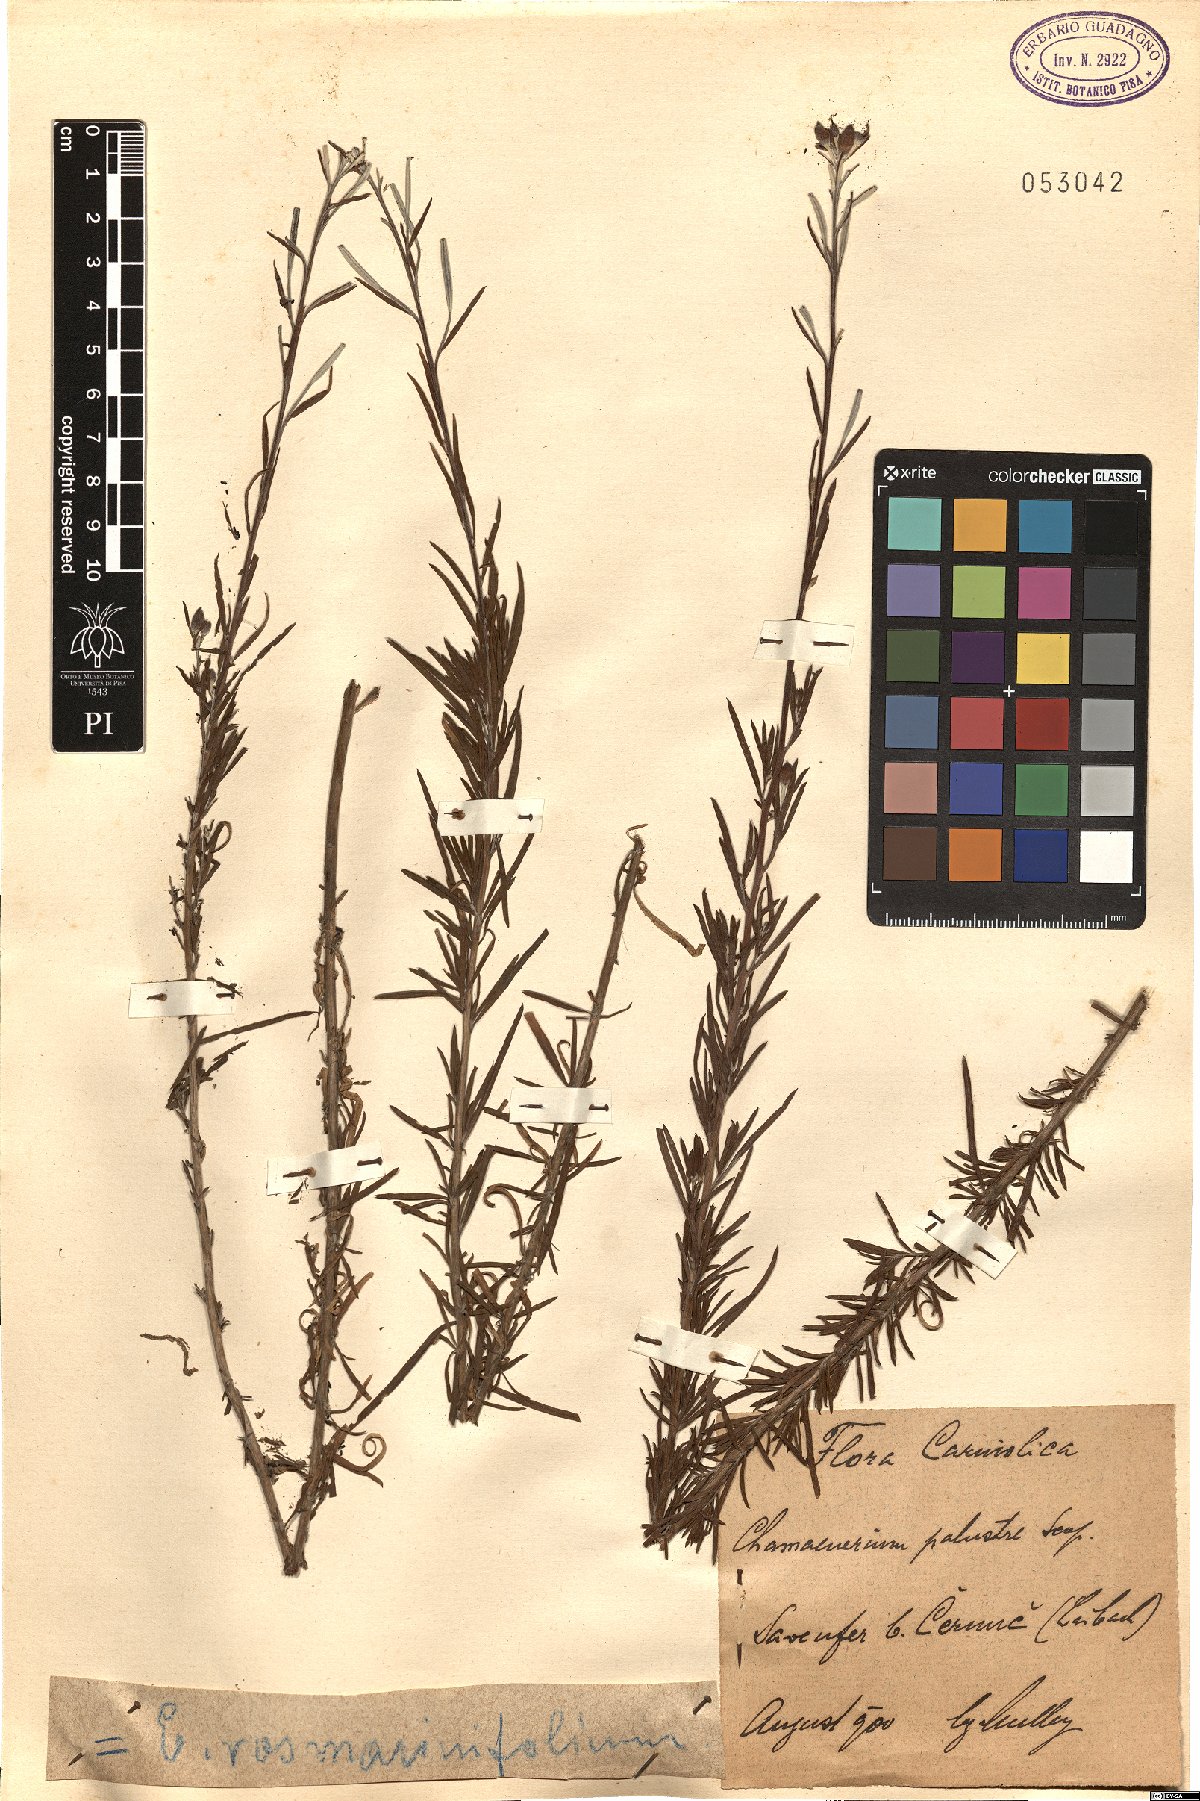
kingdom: Plantae
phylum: Tracheophyta
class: Magnoliopsida
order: Myrtales
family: Onagraceae
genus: Chamaenerion
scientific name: Chamaenerion dodonaei
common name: Rosemary-leaved willowherb
